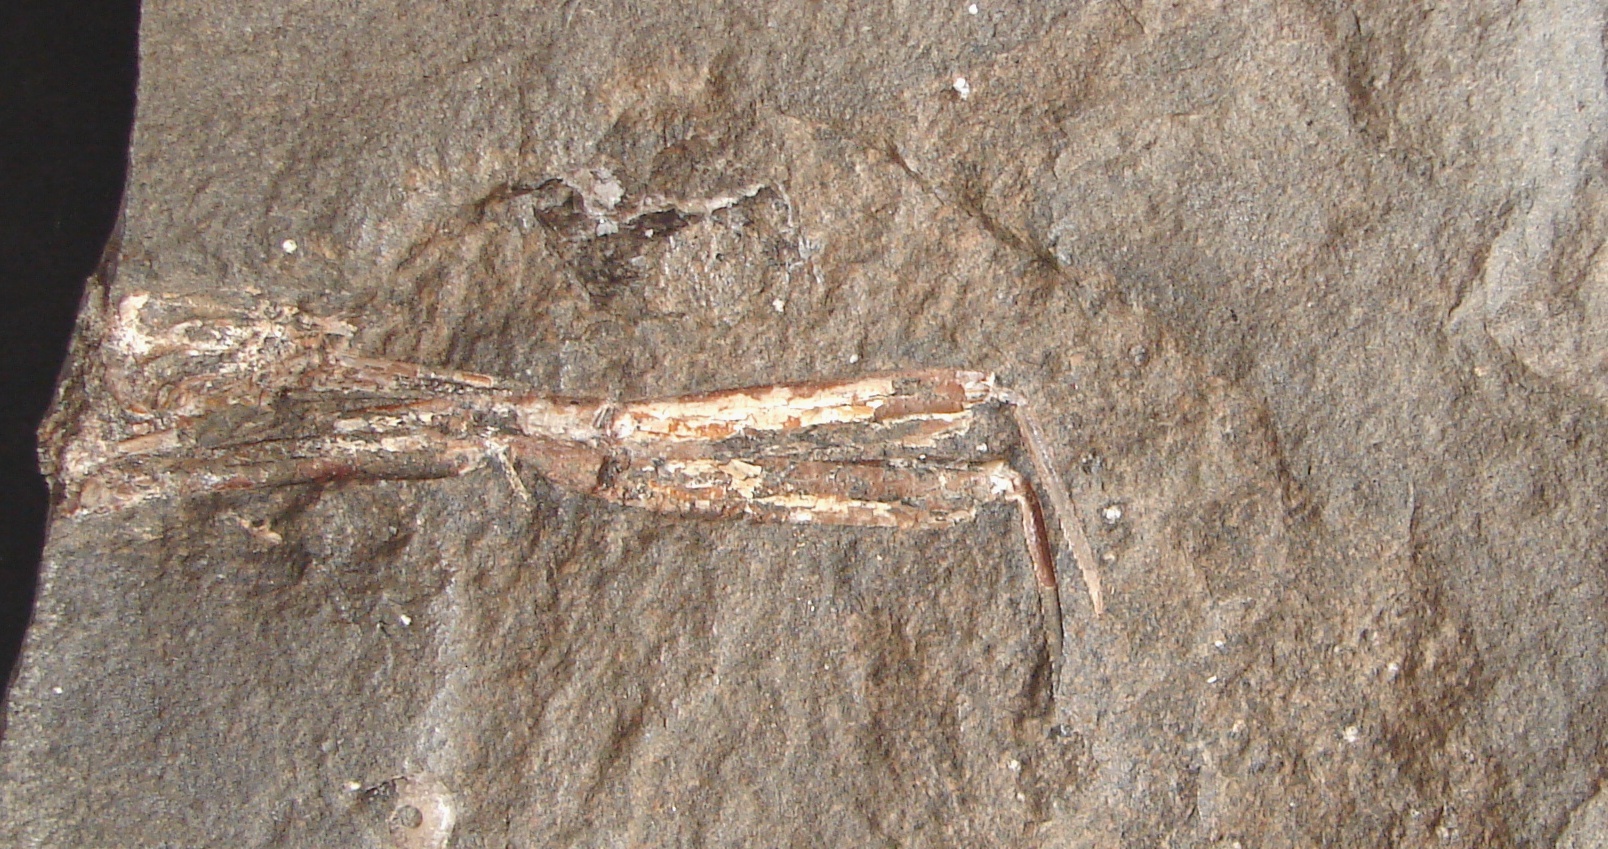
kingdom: Animalia
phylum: Arthropoda
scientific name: Arthropoda
